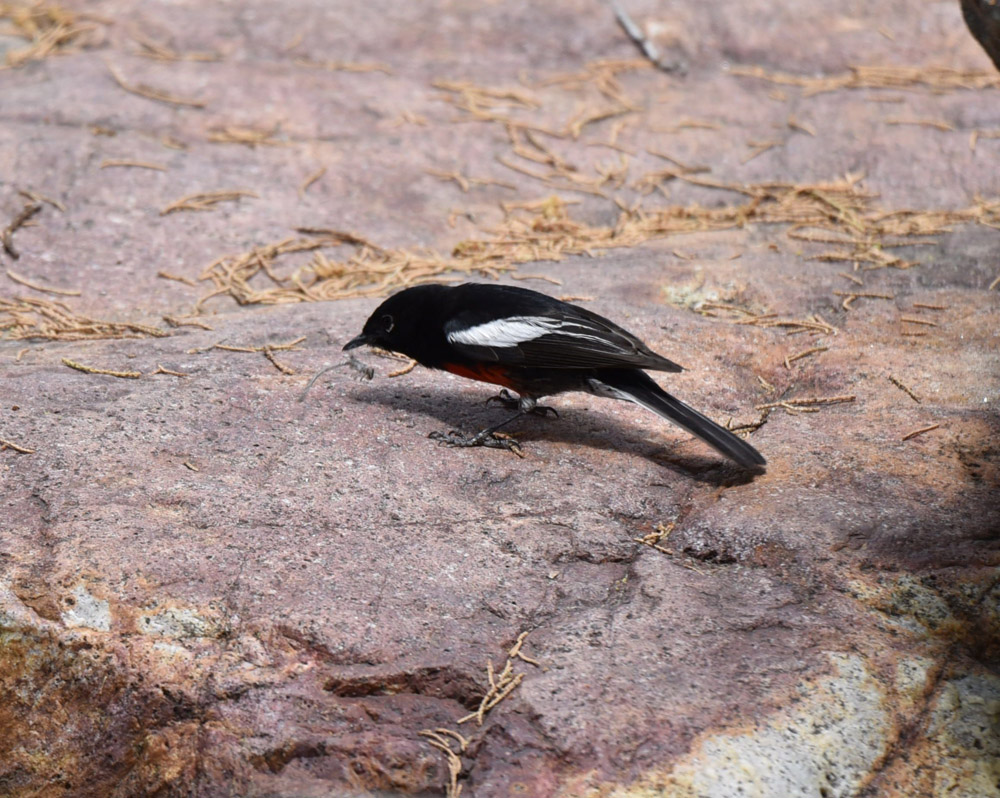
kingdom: Animalia
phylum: Chordata
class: Aves
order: Passeriformes
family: Parulidae
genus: Myioborus
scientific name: Myioborus pictus
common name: Painted whitestart
